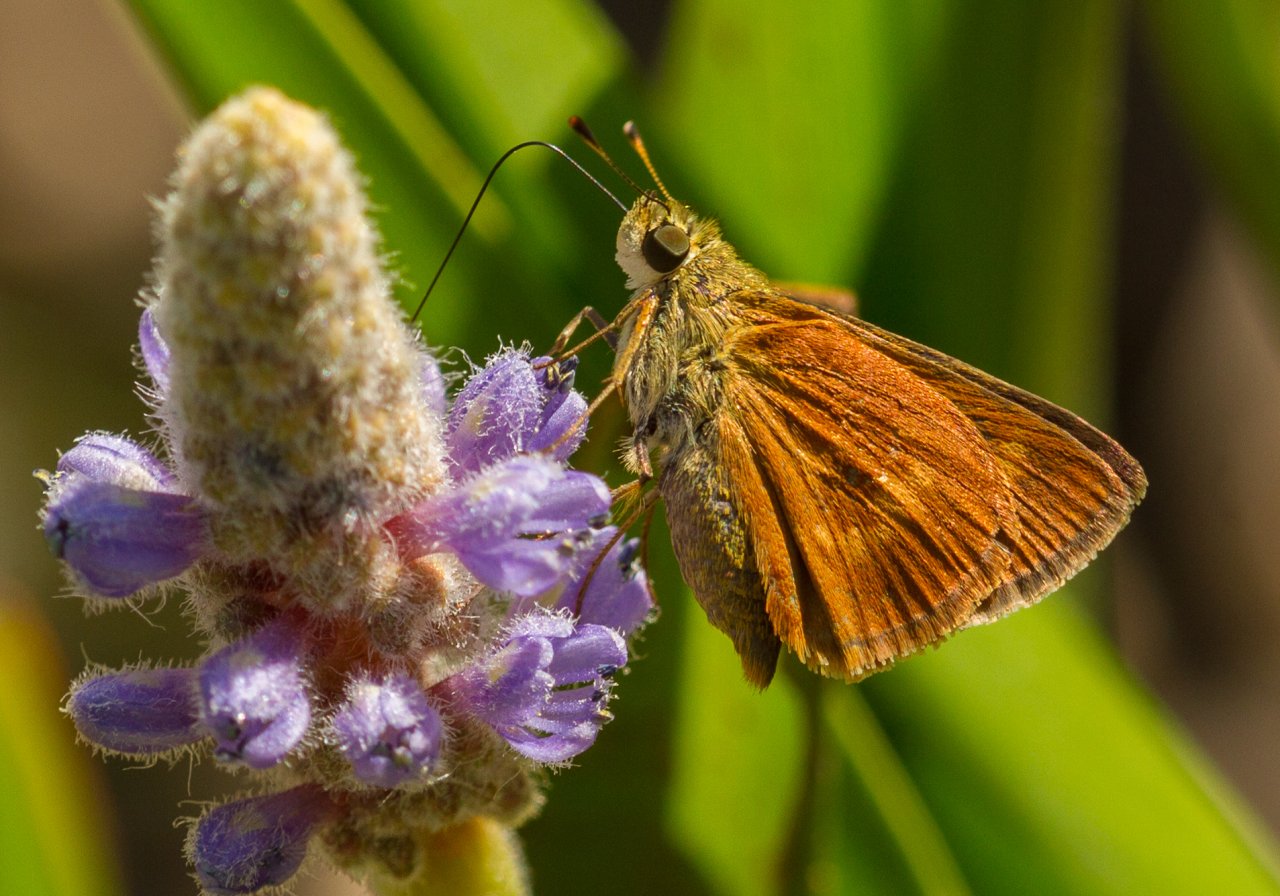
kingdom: Animalia
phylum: Arthropoda
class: Insecta
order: Lepidoptera
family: Hesperiidae
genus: Wallengrenia
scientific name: Wallengrenia otho
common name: Southern Broken-Dash
